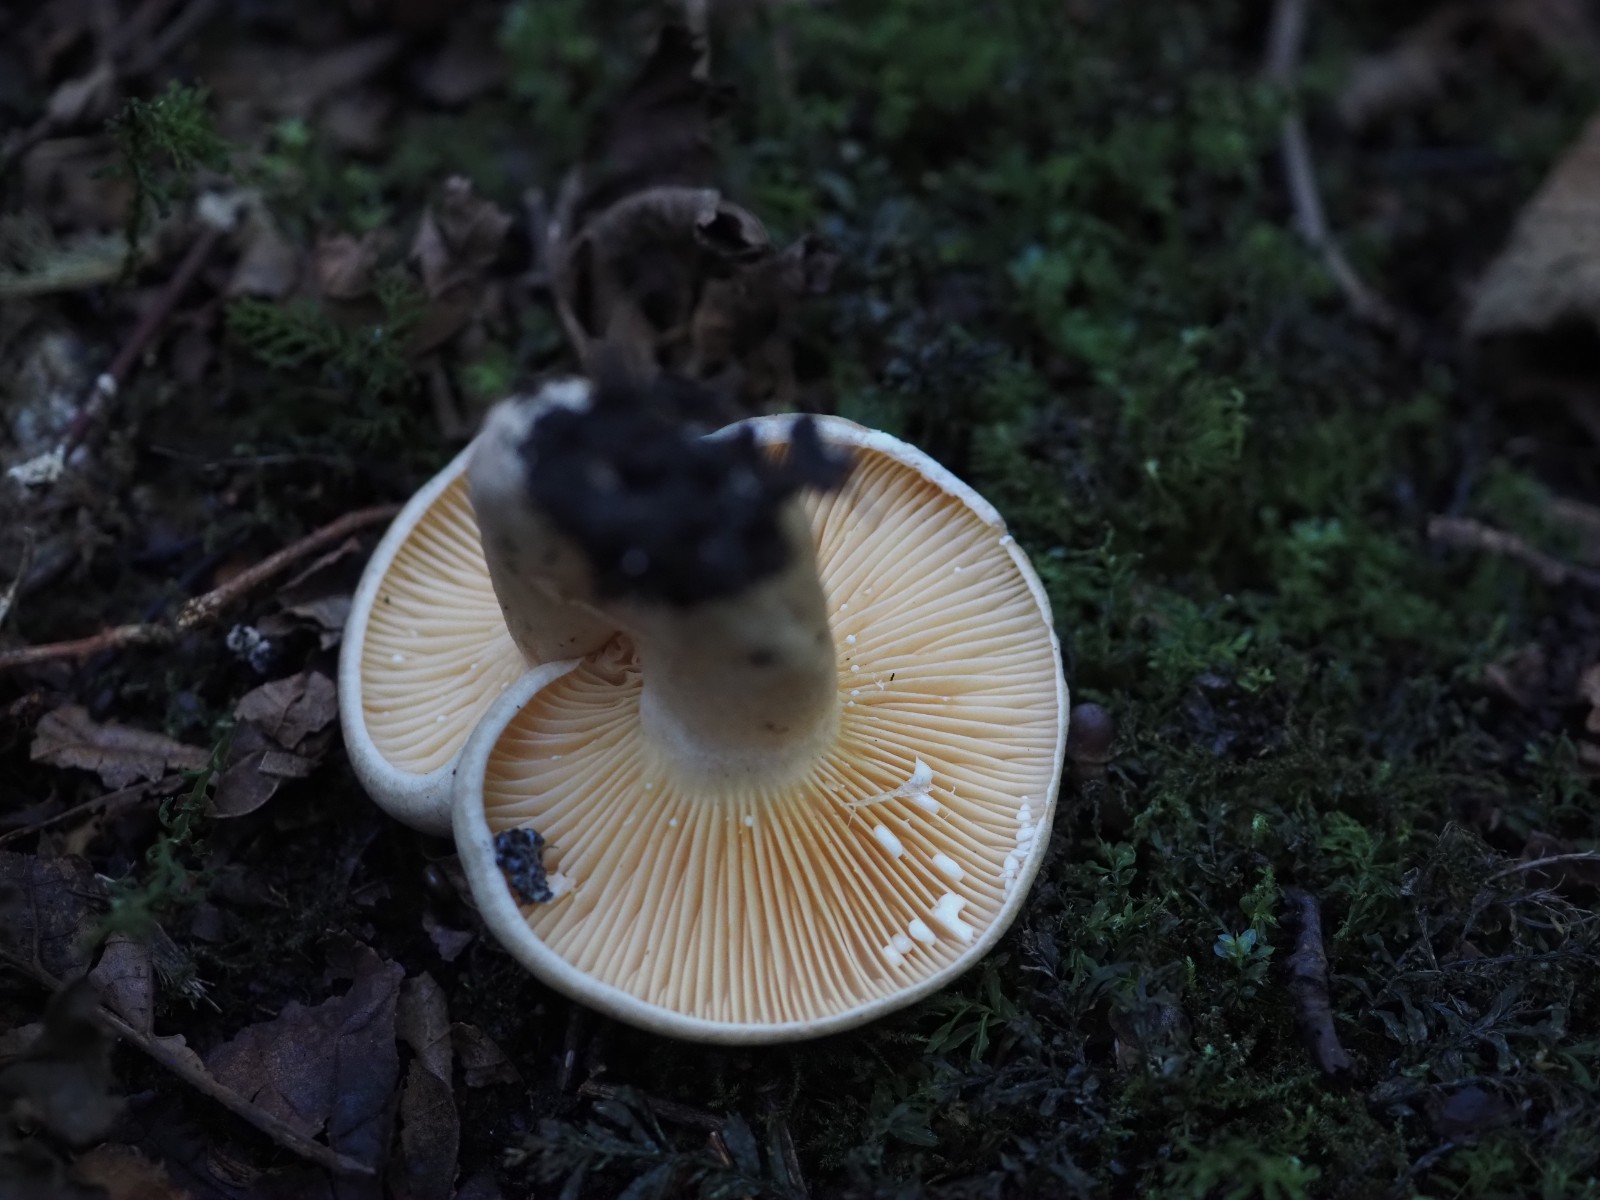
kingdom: Fungi
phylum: Basidiomycota
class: Agaricomycetes
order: Russulales
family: Russulaceae
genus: Lactarius
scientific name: Lactarius pyrogalus
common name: hassel-mælkehat
